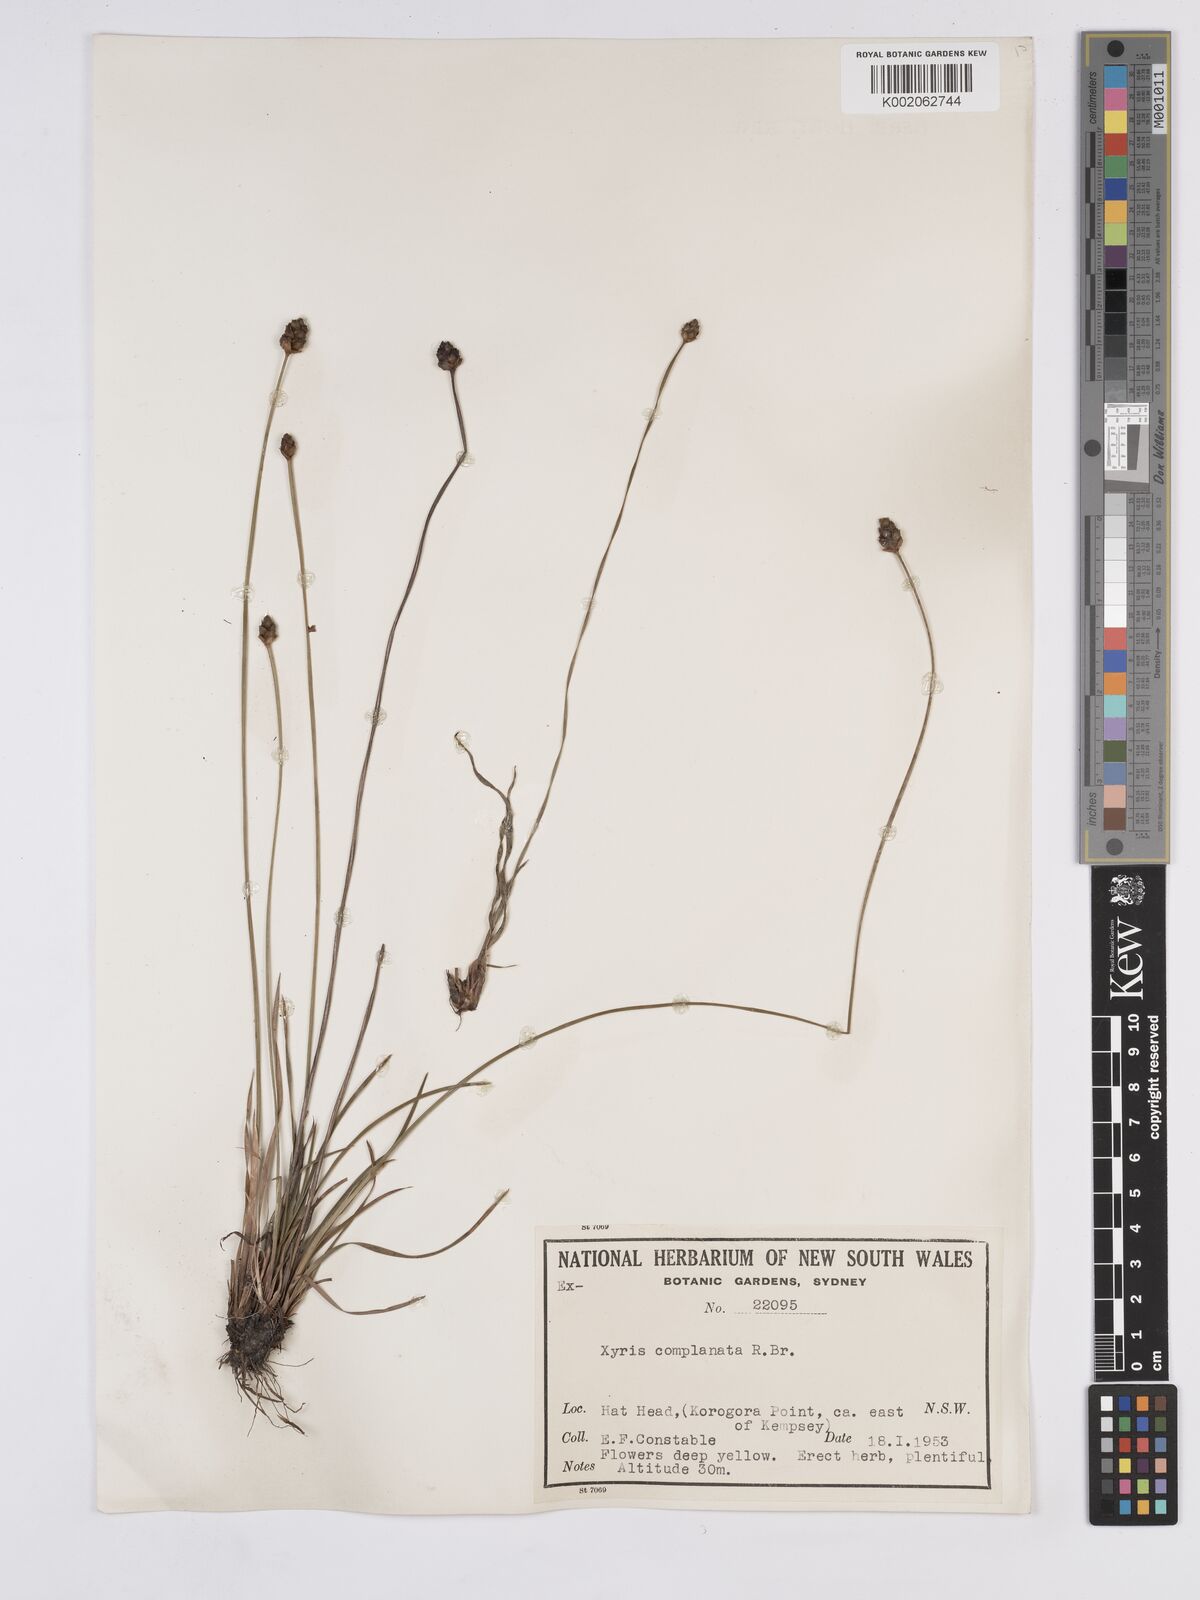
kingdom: Plantae
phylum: Tracheophyta
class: Liliopsida
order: Poales
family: Xyridaceae
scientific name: Xyridaceae
